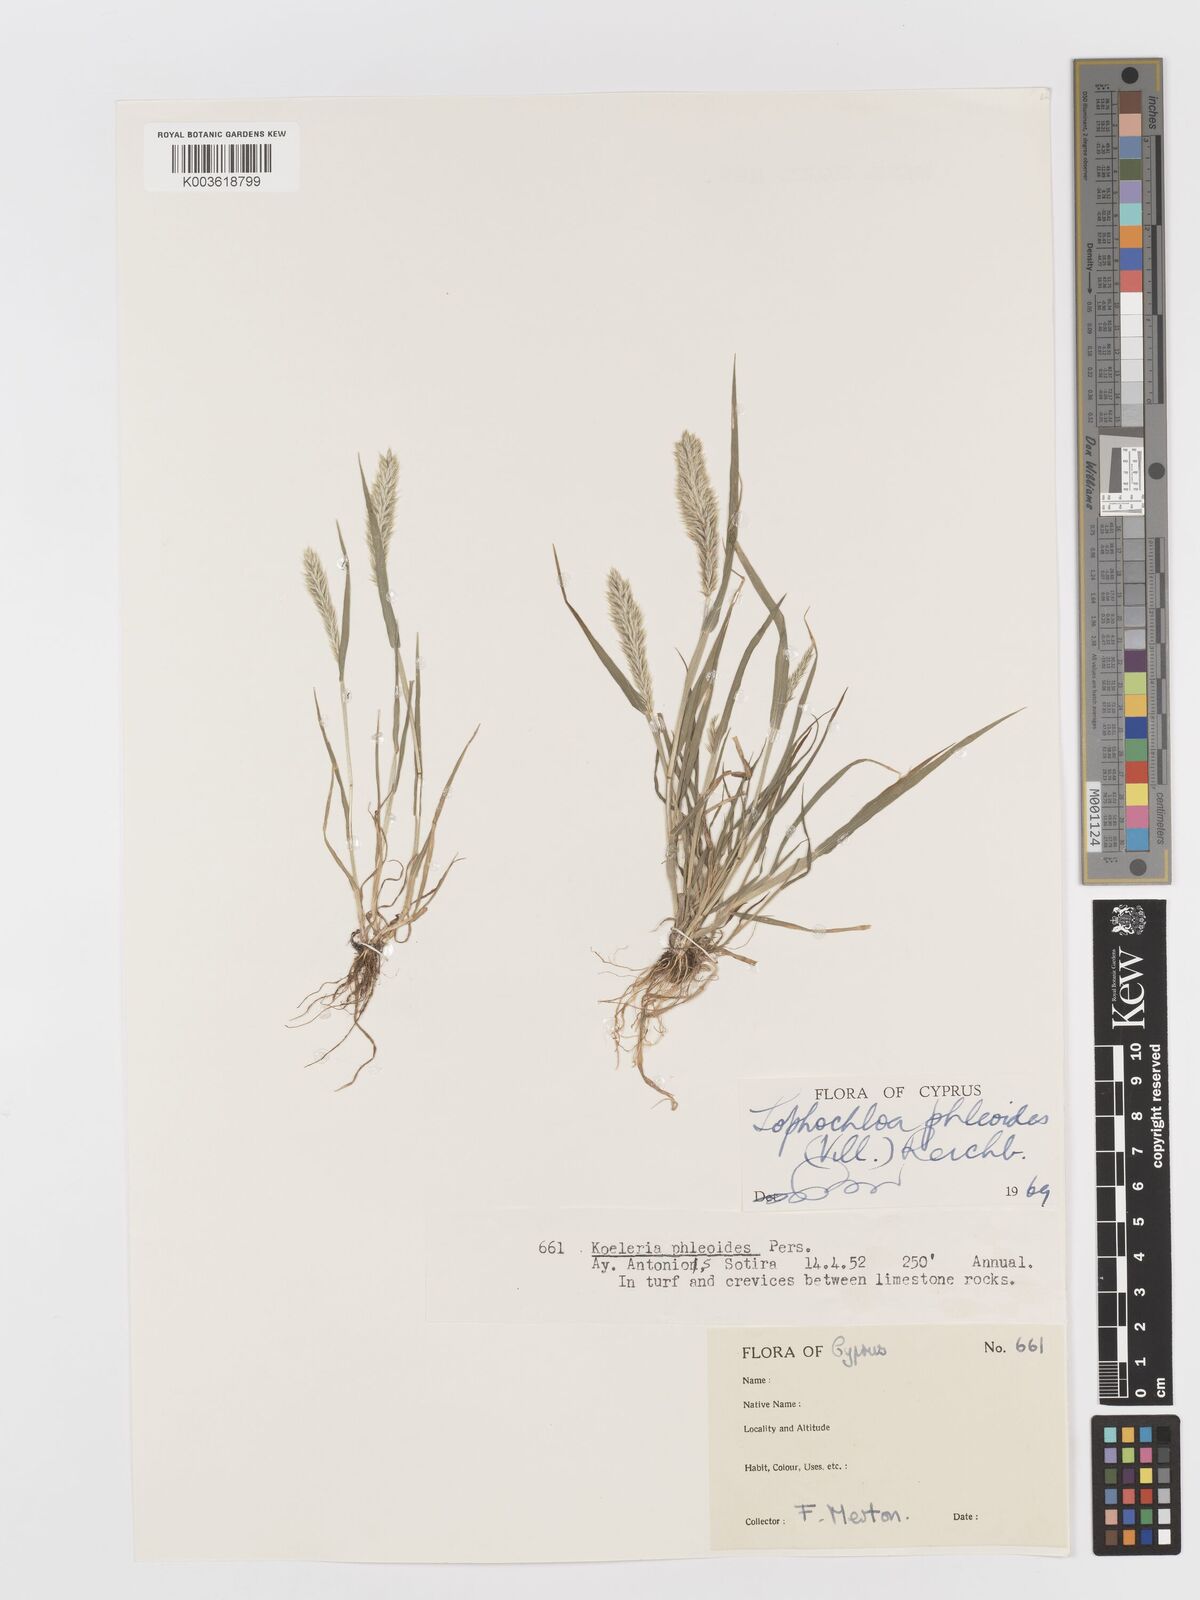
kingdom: Plantae
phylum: Tracheophyta
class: Liliopsida
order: Poales
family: Poaceae
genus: Rostraria
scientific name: Rostraria cristata
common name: Mediterranean hair-grass
